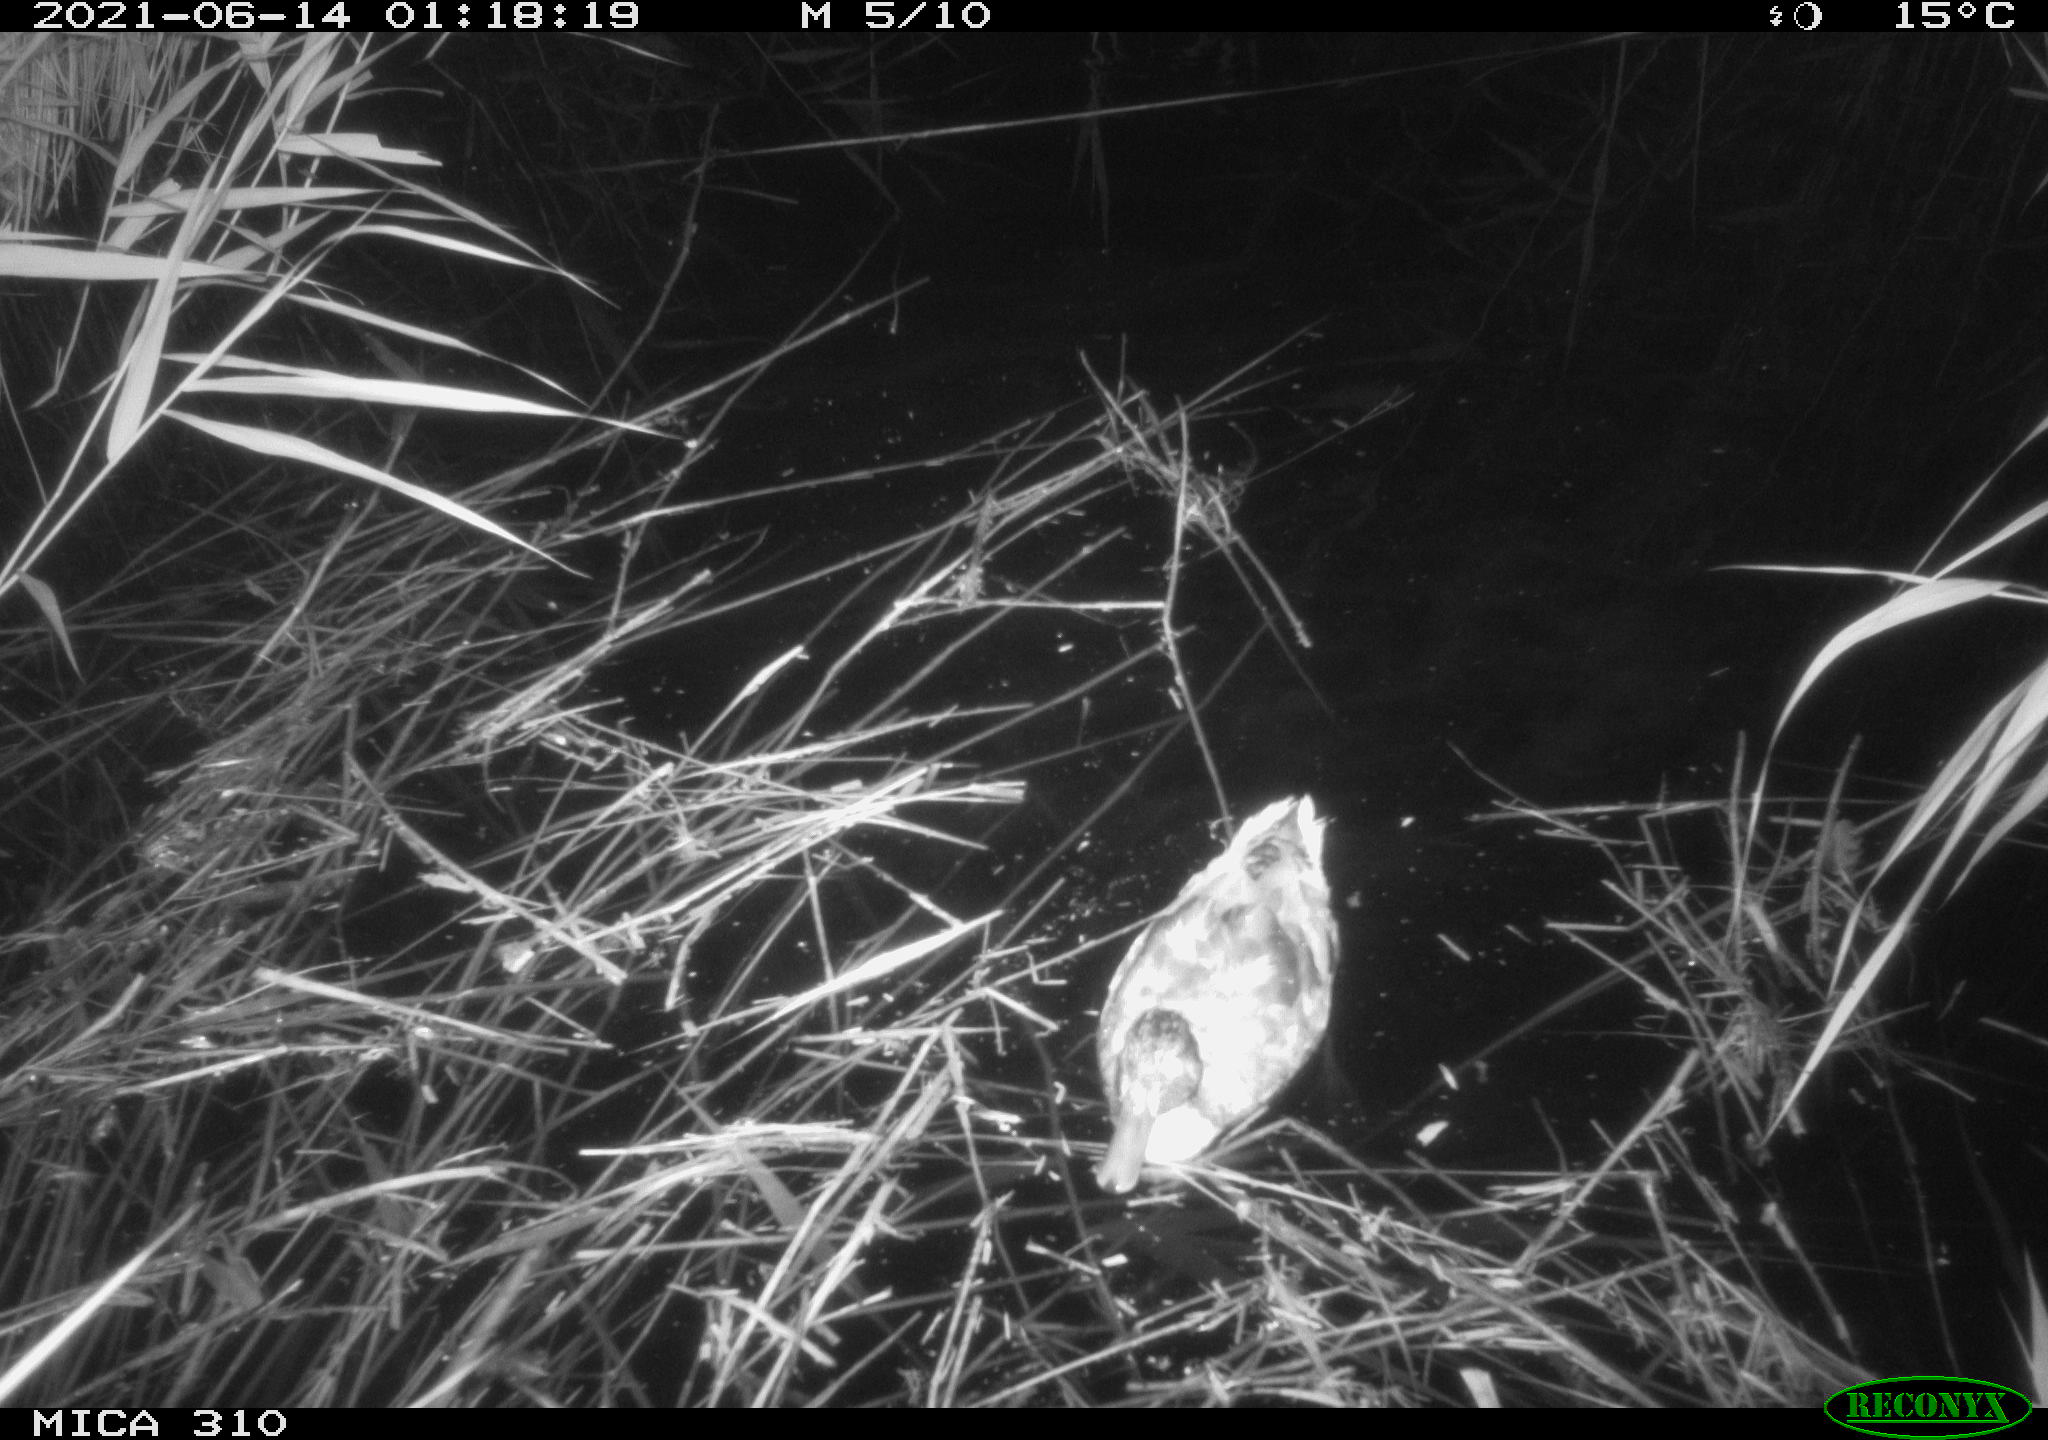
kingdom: Animalia
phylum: Chordata
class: Aves
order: Anseriformes
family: Anatidae
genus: Anas
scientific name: Anas
